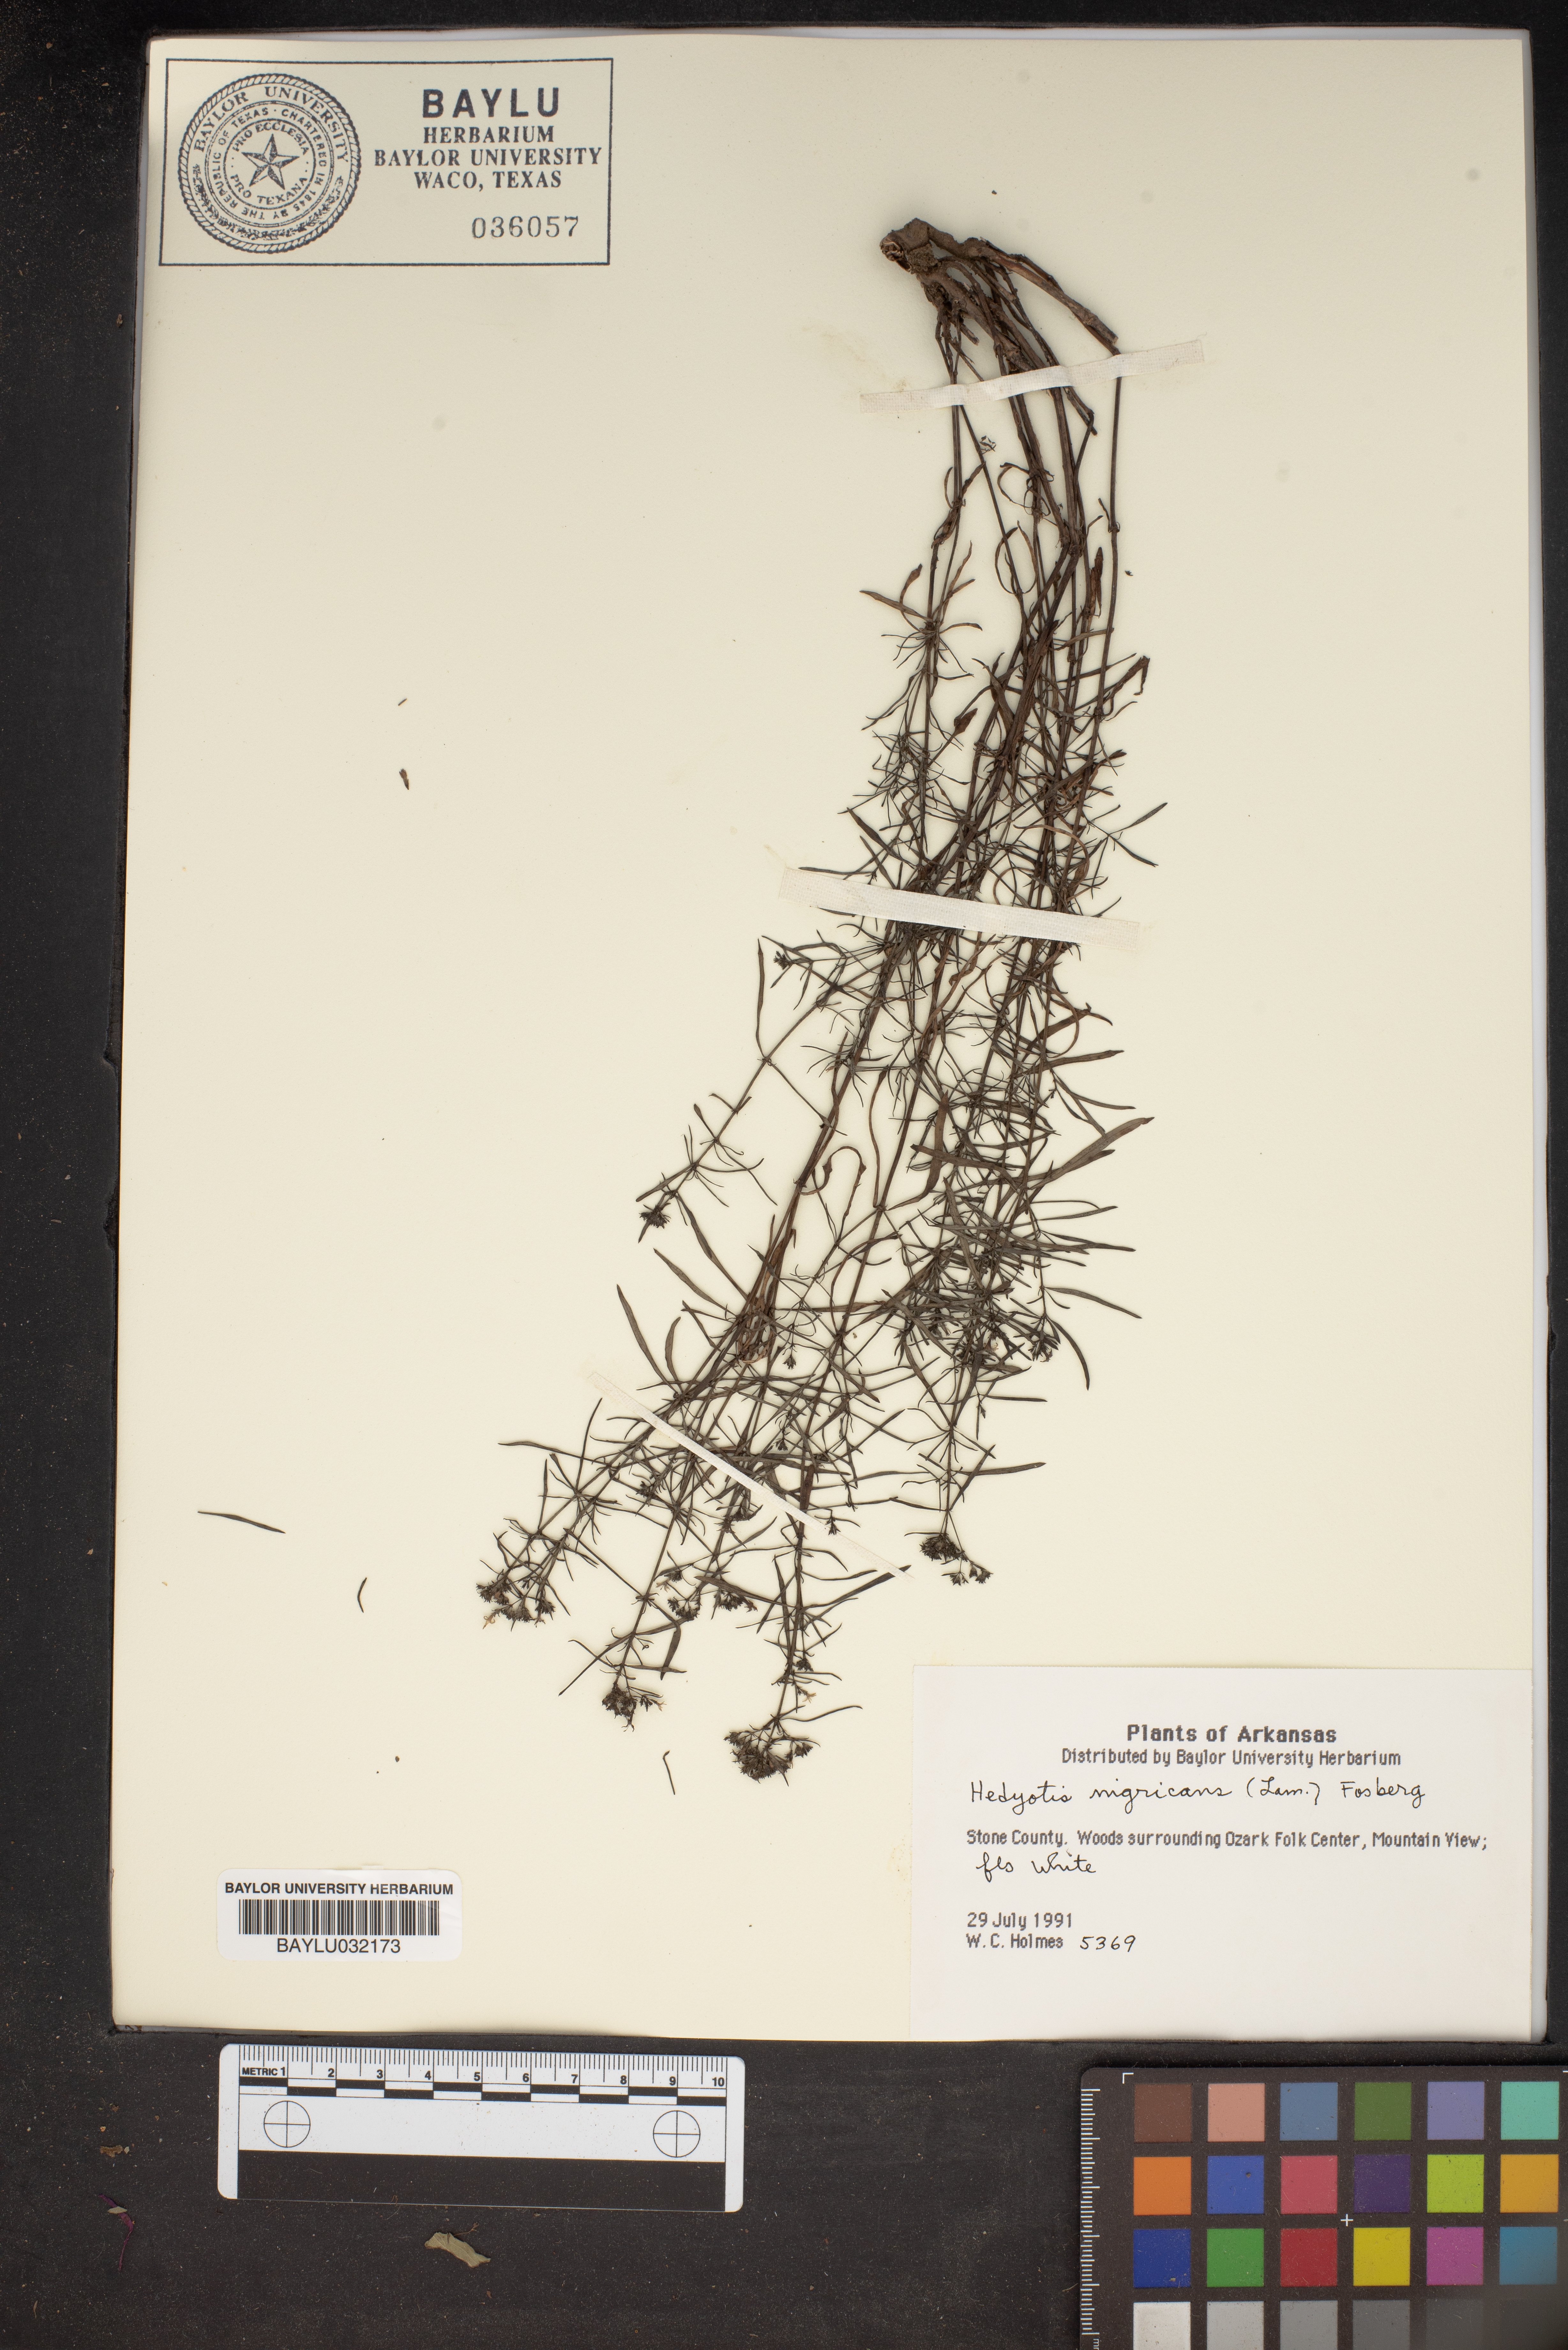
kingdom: Plantae
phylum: Tracheophyta
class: Magnoliopsida
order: Gentianales
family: Rubiaceae
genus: Stenaria
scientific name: Stenaria nigricans
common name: Diamondflowers
